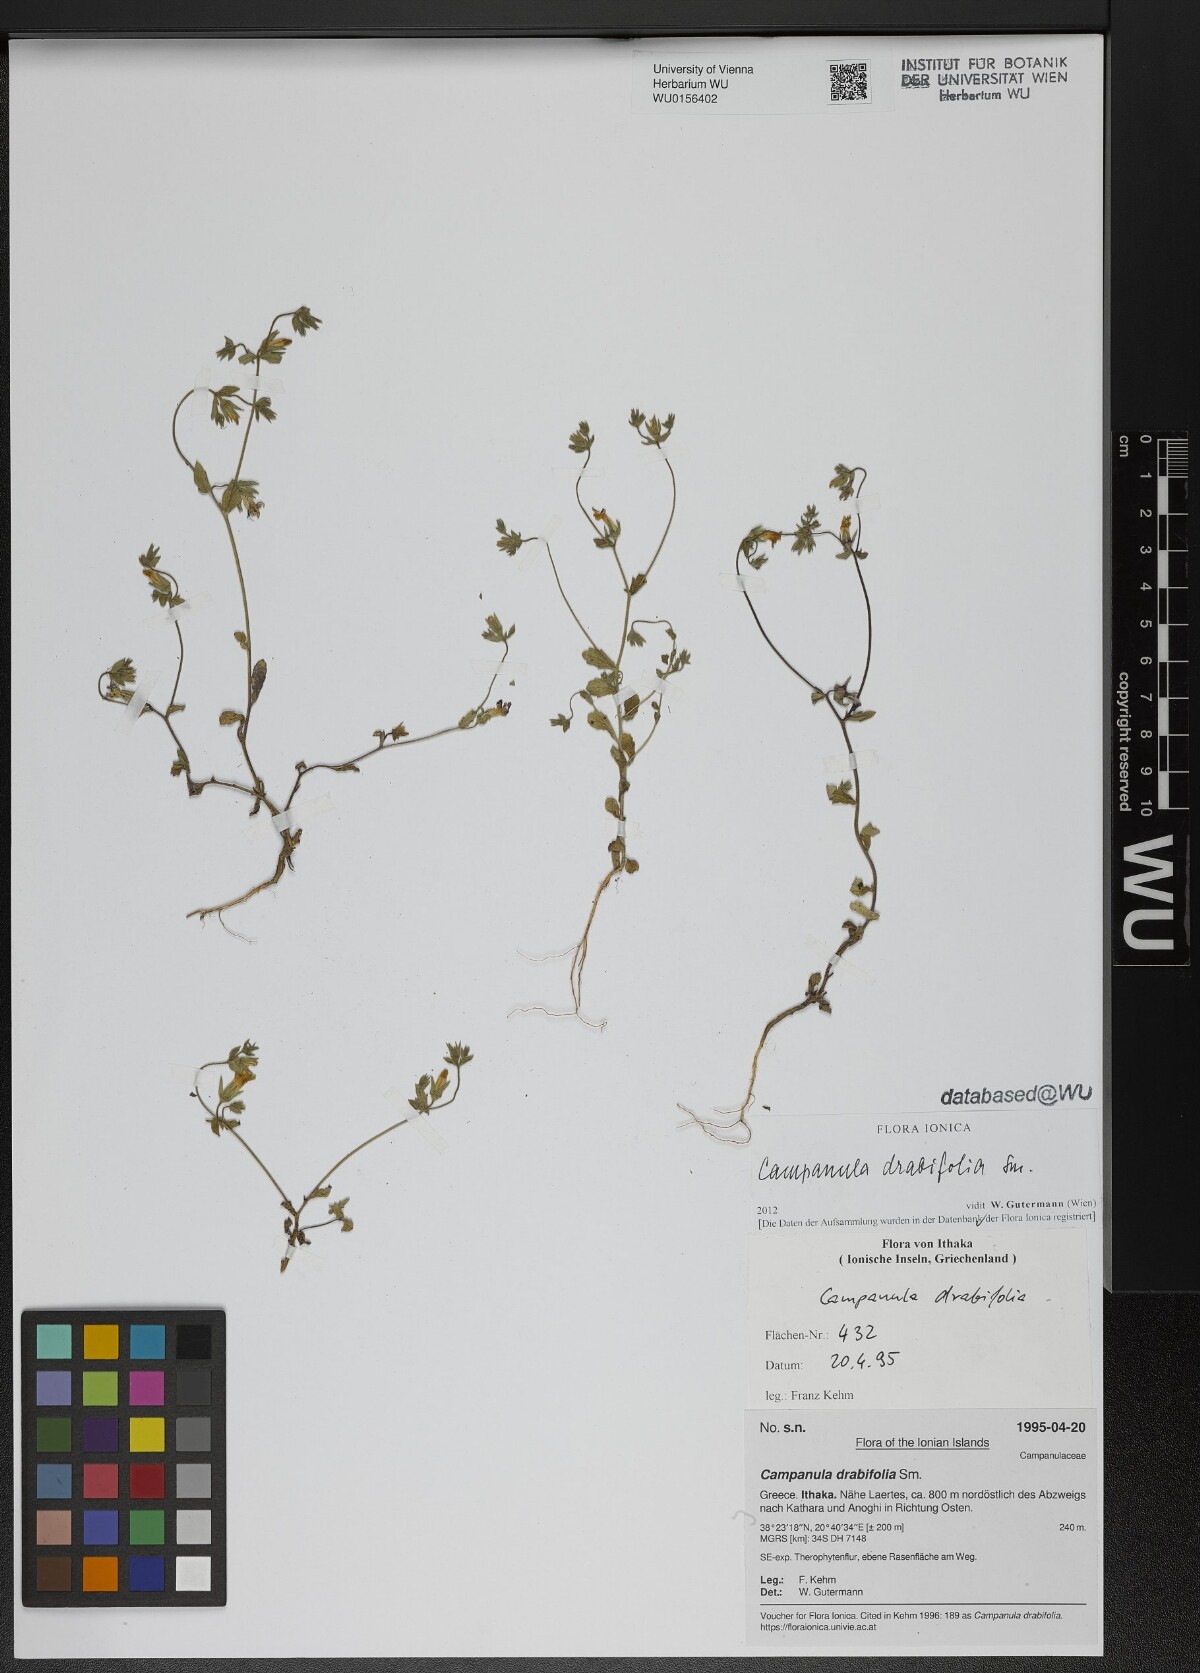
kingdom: Plantae
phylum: Tracheophyta
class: Magnoliopsida
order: Asterales
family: Campanulaceae
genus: Campanula
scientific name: Campanula drabifolia
